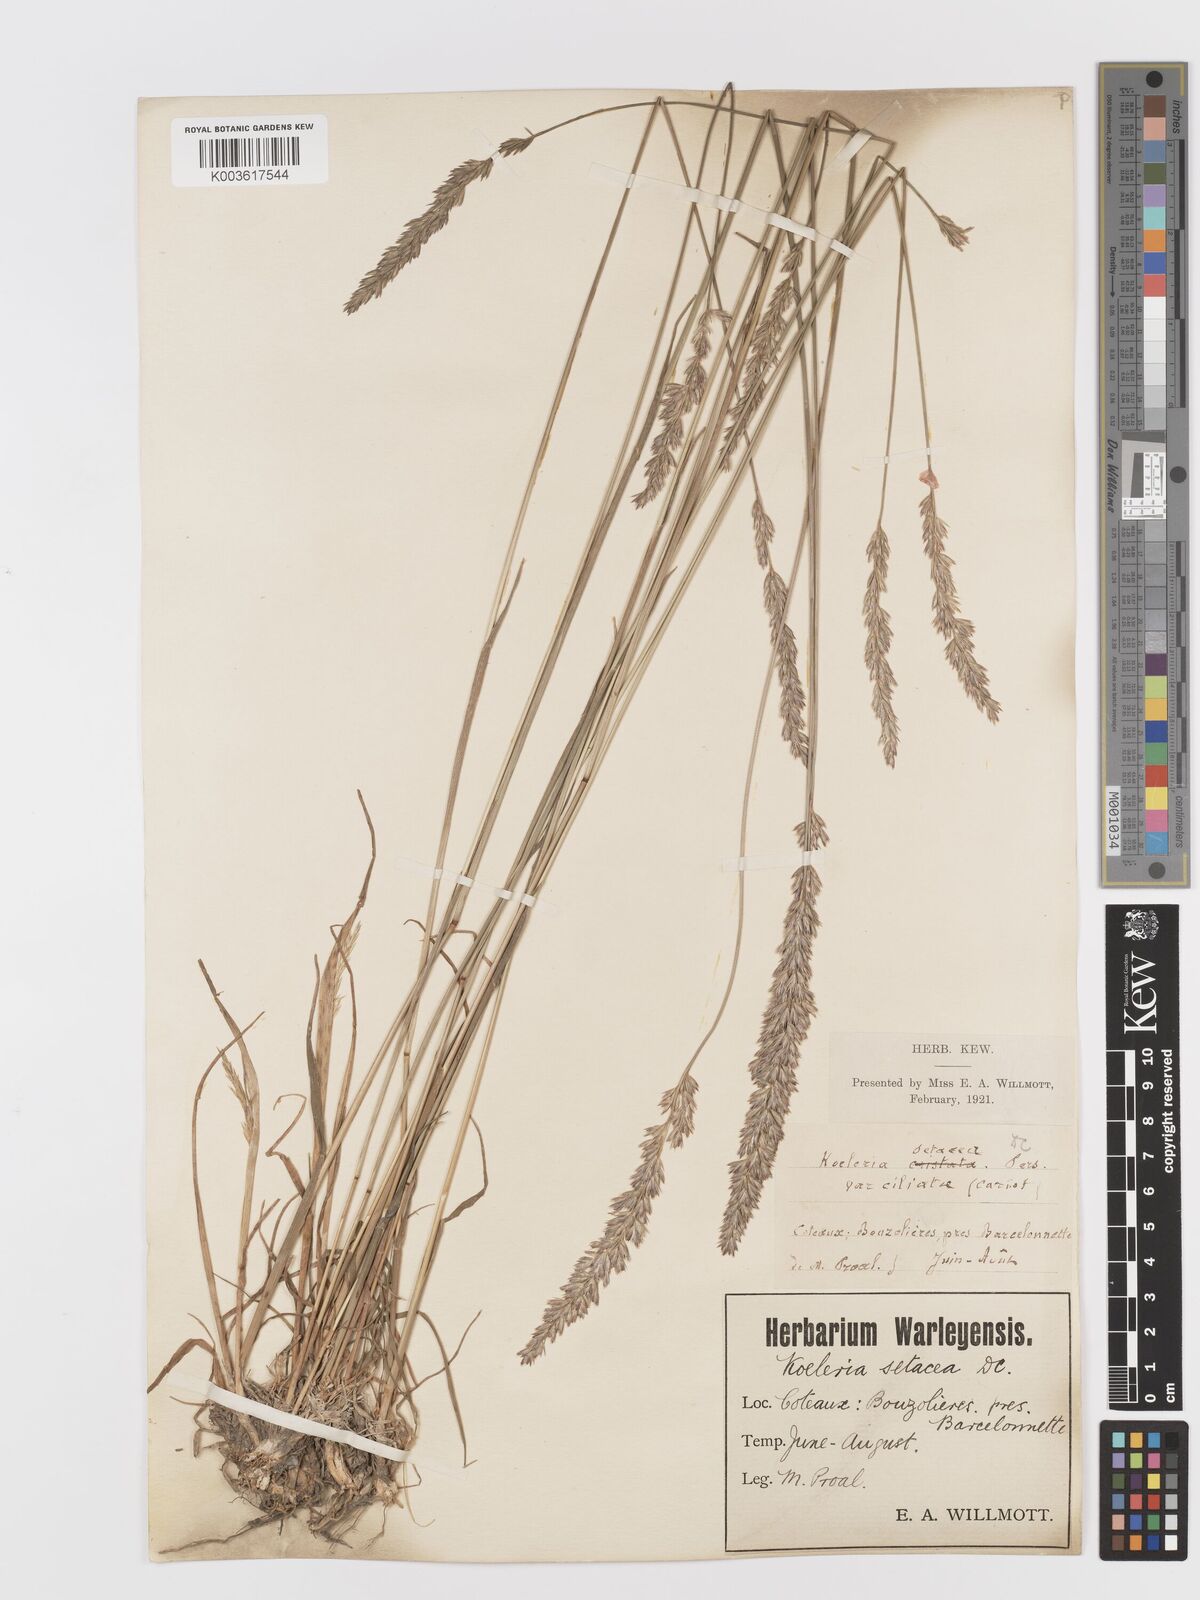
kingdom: Plantae
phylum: Tracheophyta
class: Liliopsida
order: Poales
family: Poaceae
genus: Koeleria
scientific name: Koeleria
